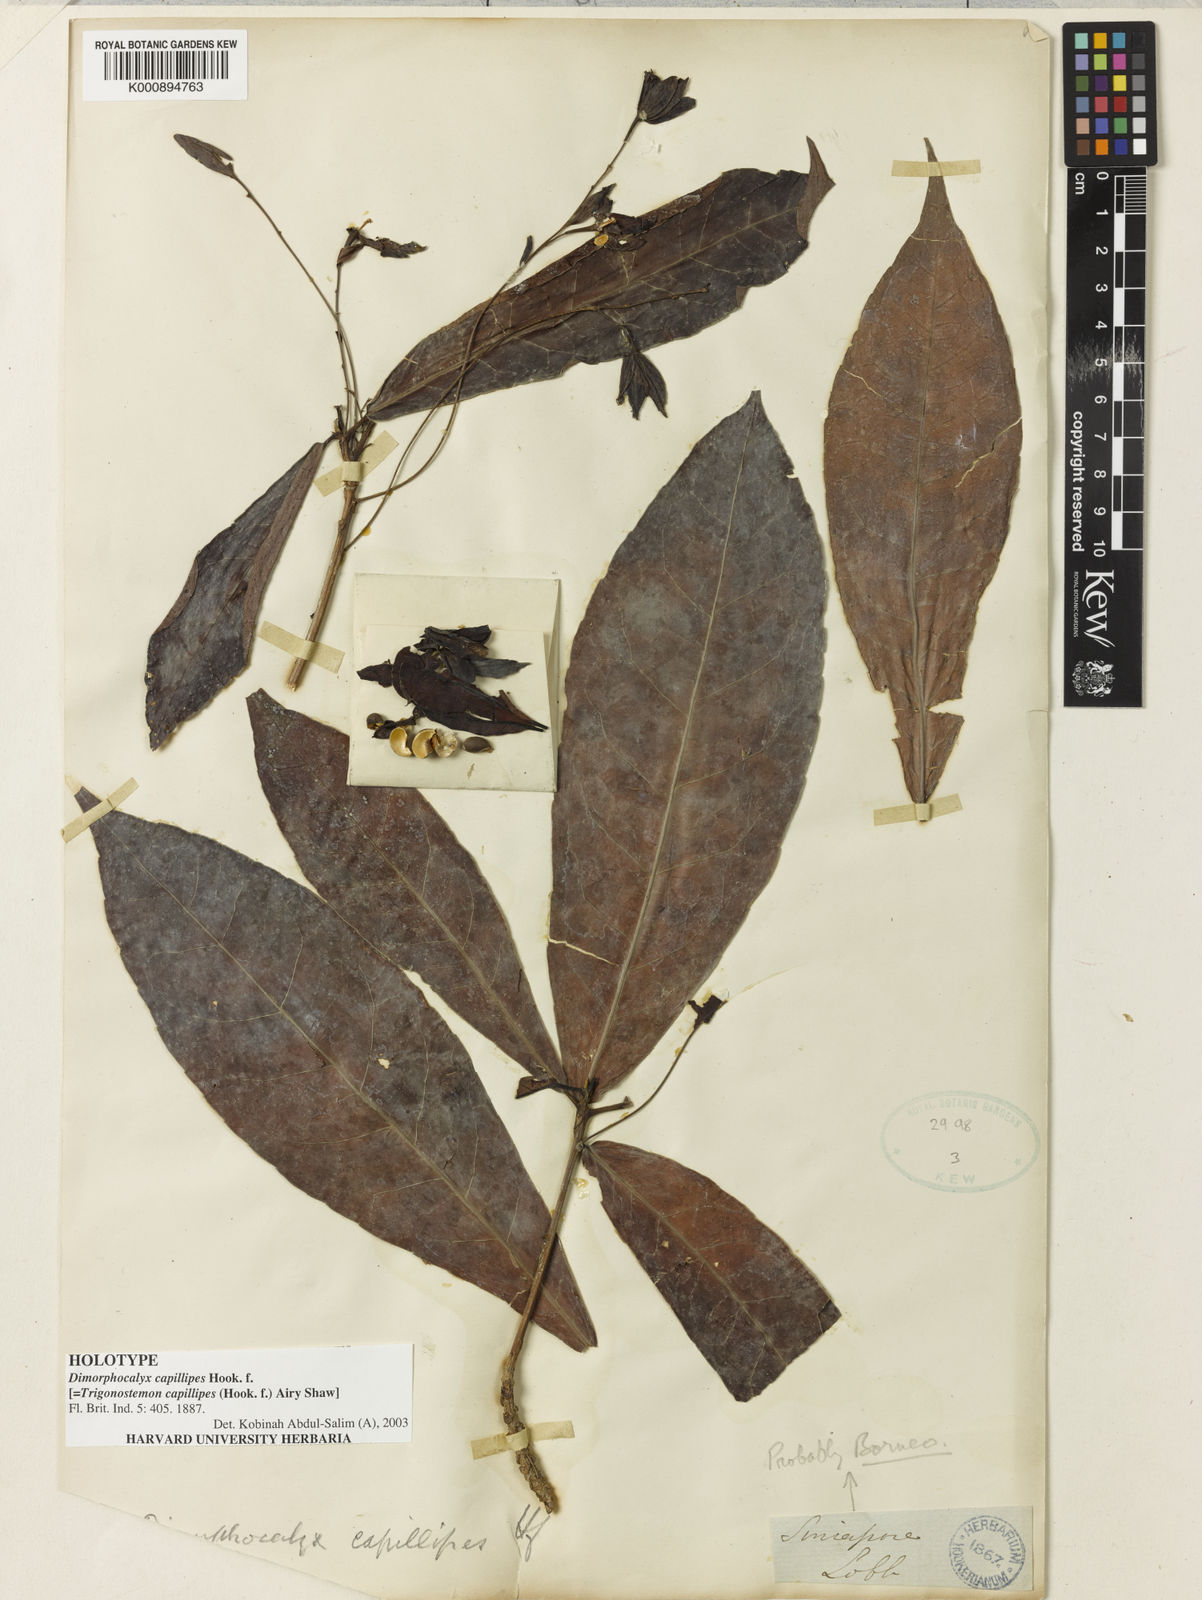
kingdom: Plantae
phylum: Tracheophyta
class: Magnoliopsida
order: Malpighiales
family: Euphorbiaceae
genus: Trigonostemon
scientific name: Trigonostemon capillipes
